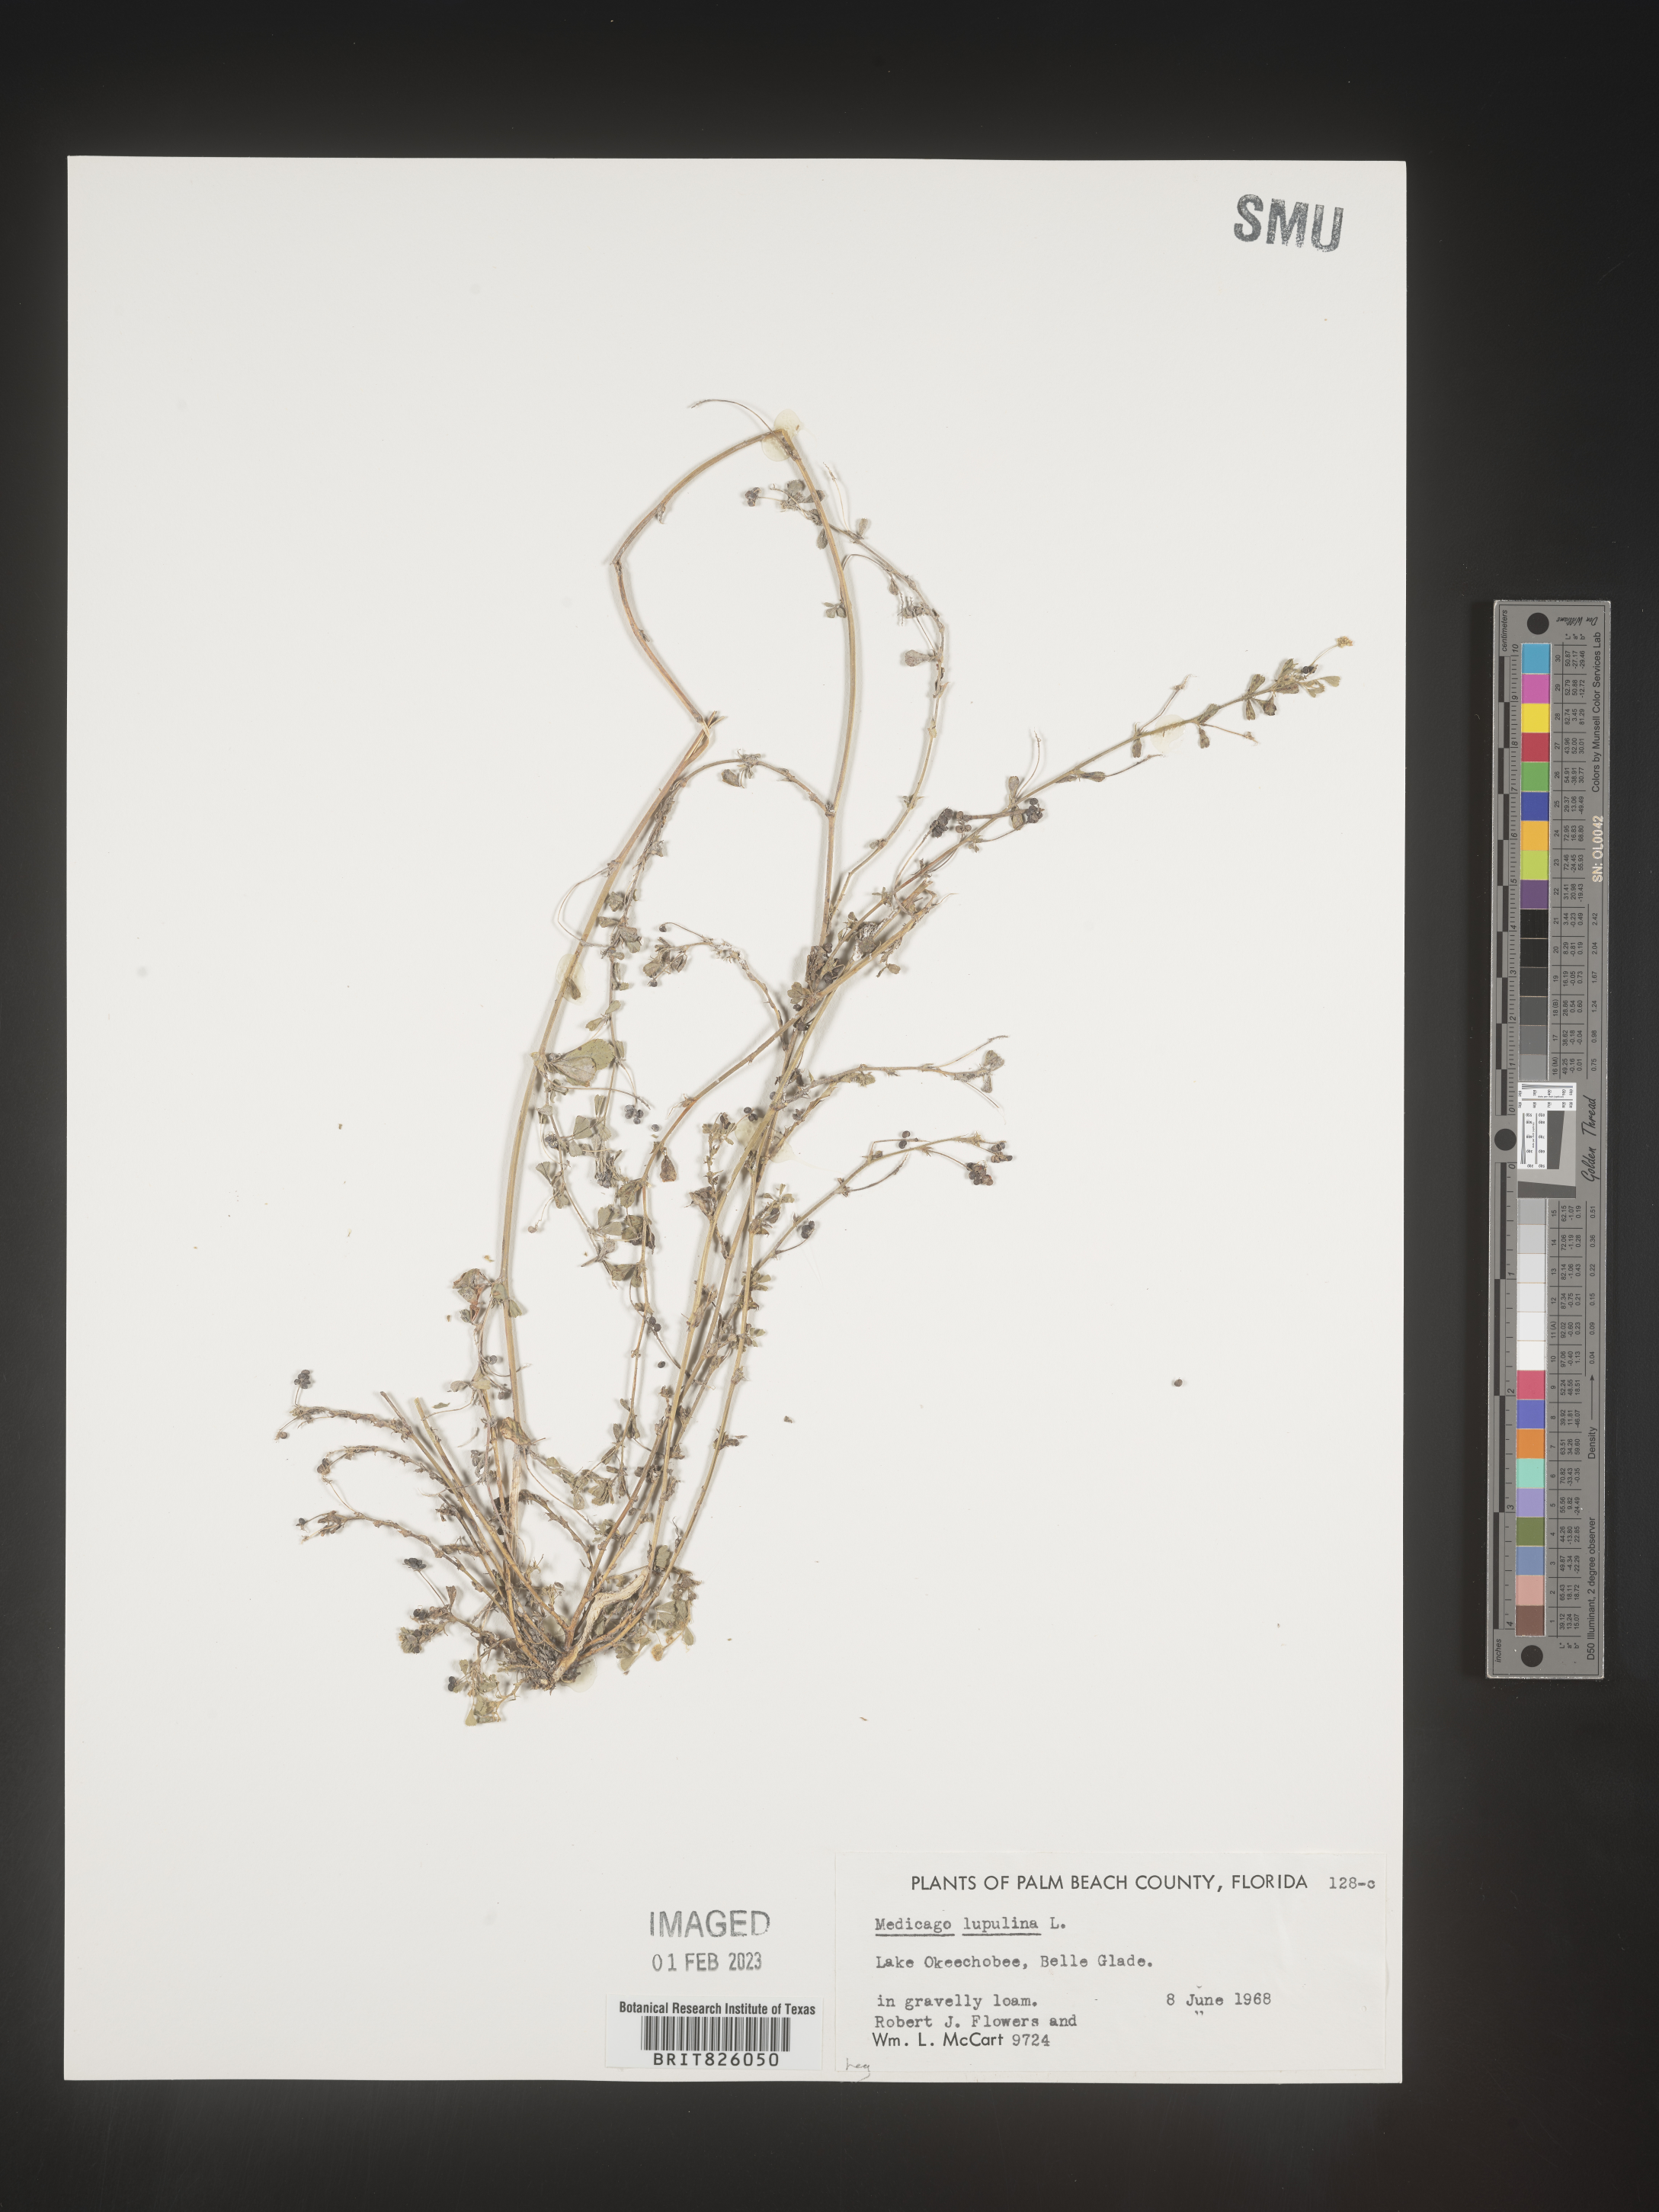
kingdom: Plantae
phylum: Tracheophyta
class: Magnoliopsida
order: Fabales
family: Fabaceae
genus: Medicago
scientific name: Medicago lupulina
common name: Black medick
